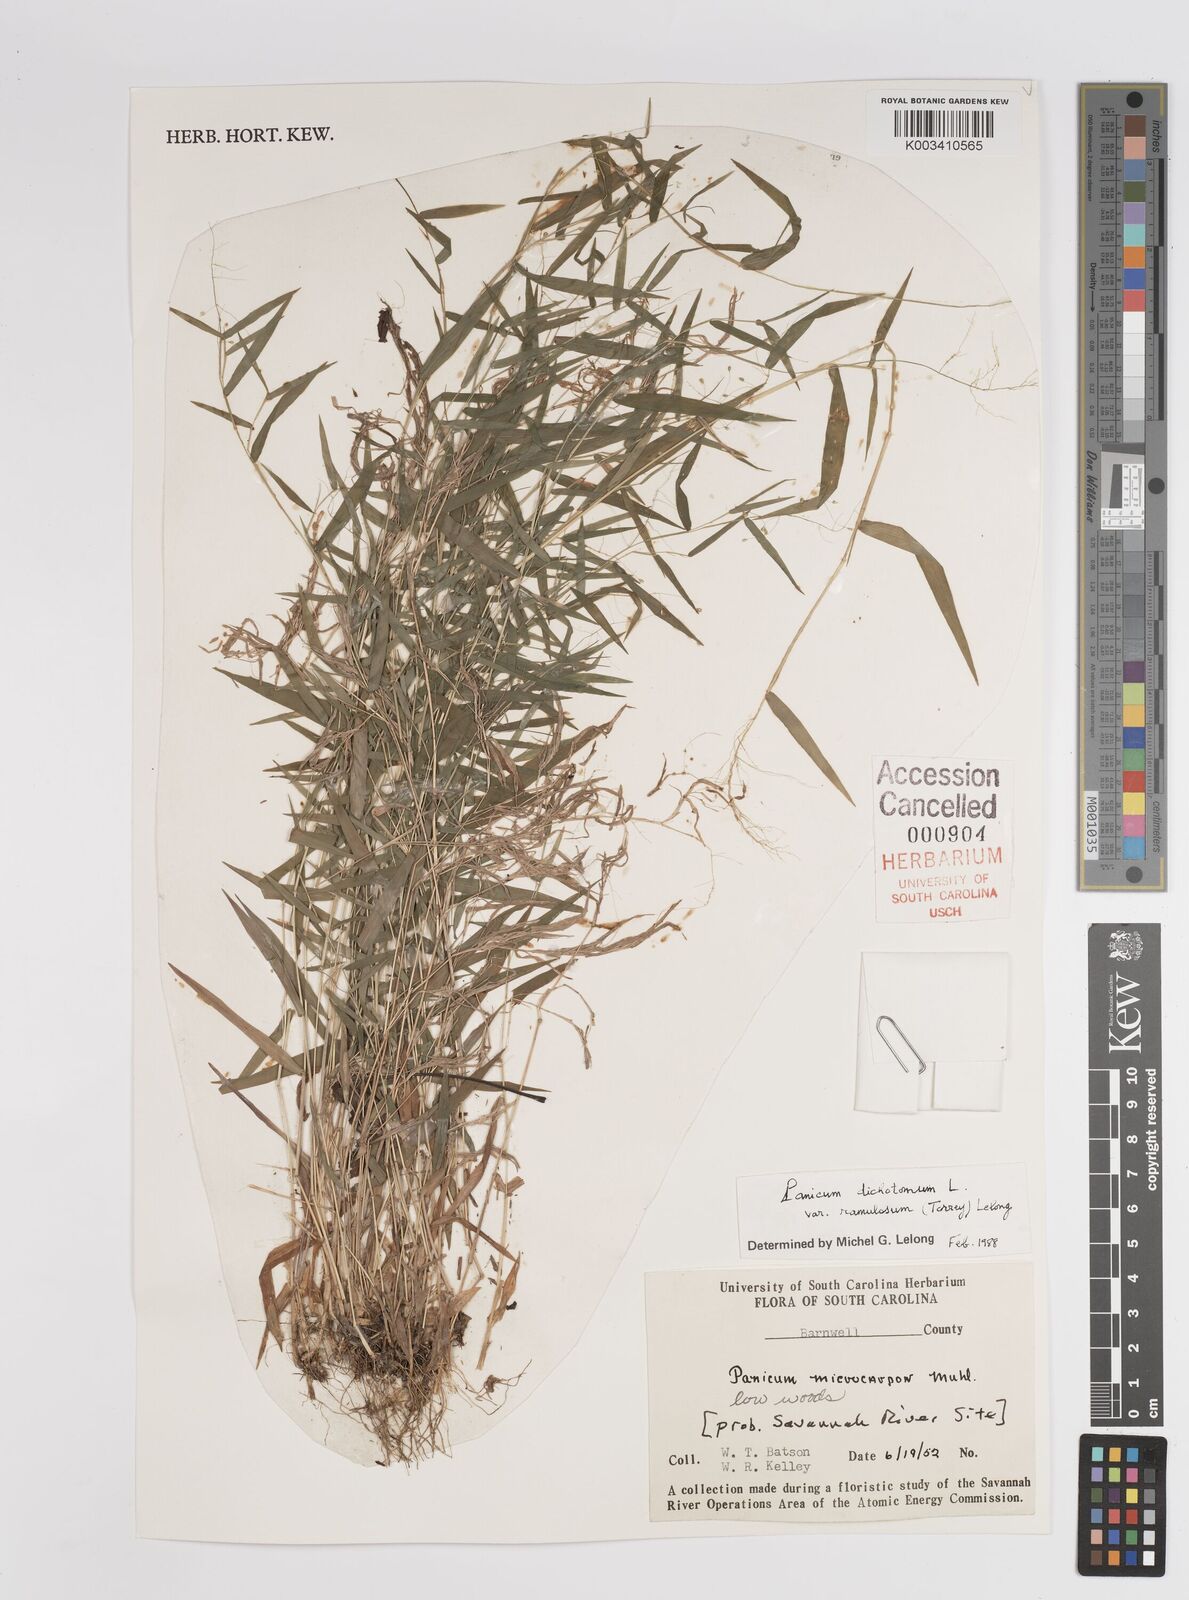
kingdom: Plantae
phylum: Tracheophyta
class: Liliopsida
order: Poales
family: Poaceae
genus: Dichanthelium
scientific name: Dichanthelium dichotomum
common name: Cypress panicgrass
